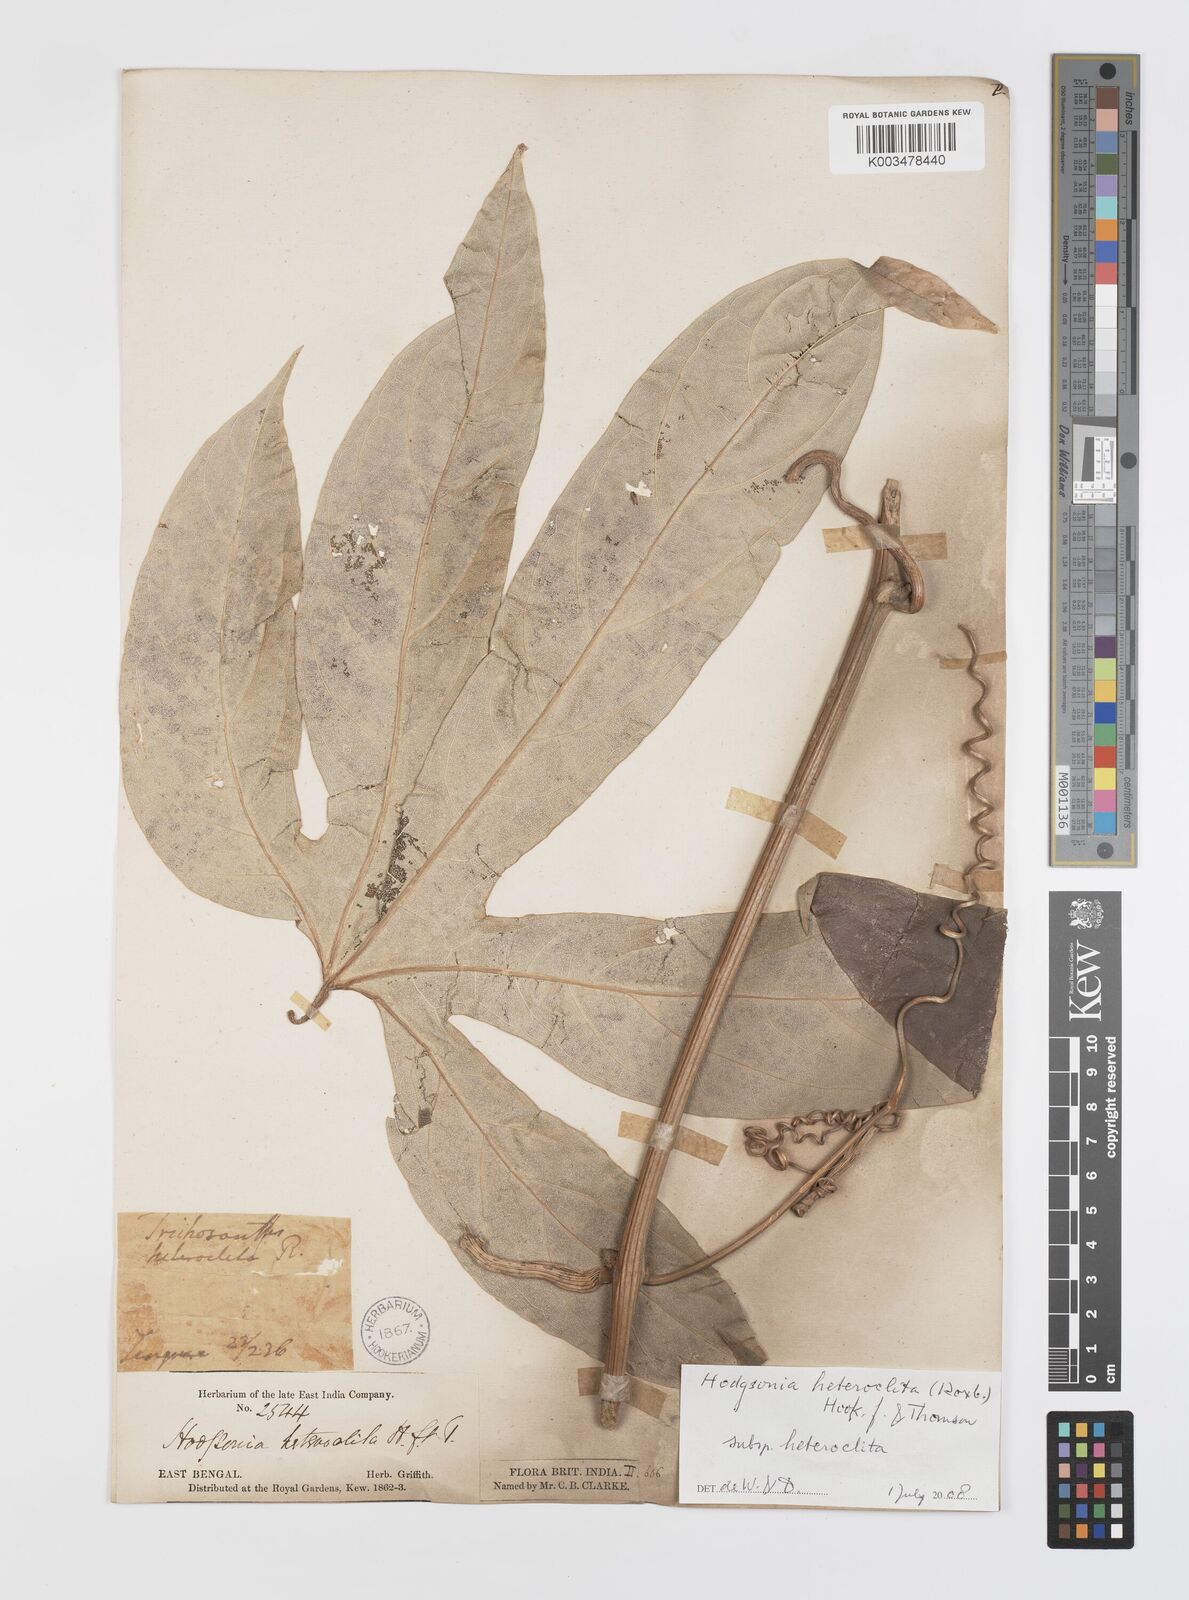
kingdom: Plantae
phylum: Tracheophyta
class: Magnoliopsida
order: Cucurbitales
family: Cucurbitaceae
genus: Hodgsonia
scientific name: Hodgsonia macrocarpa
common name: Chinese lardfruit
